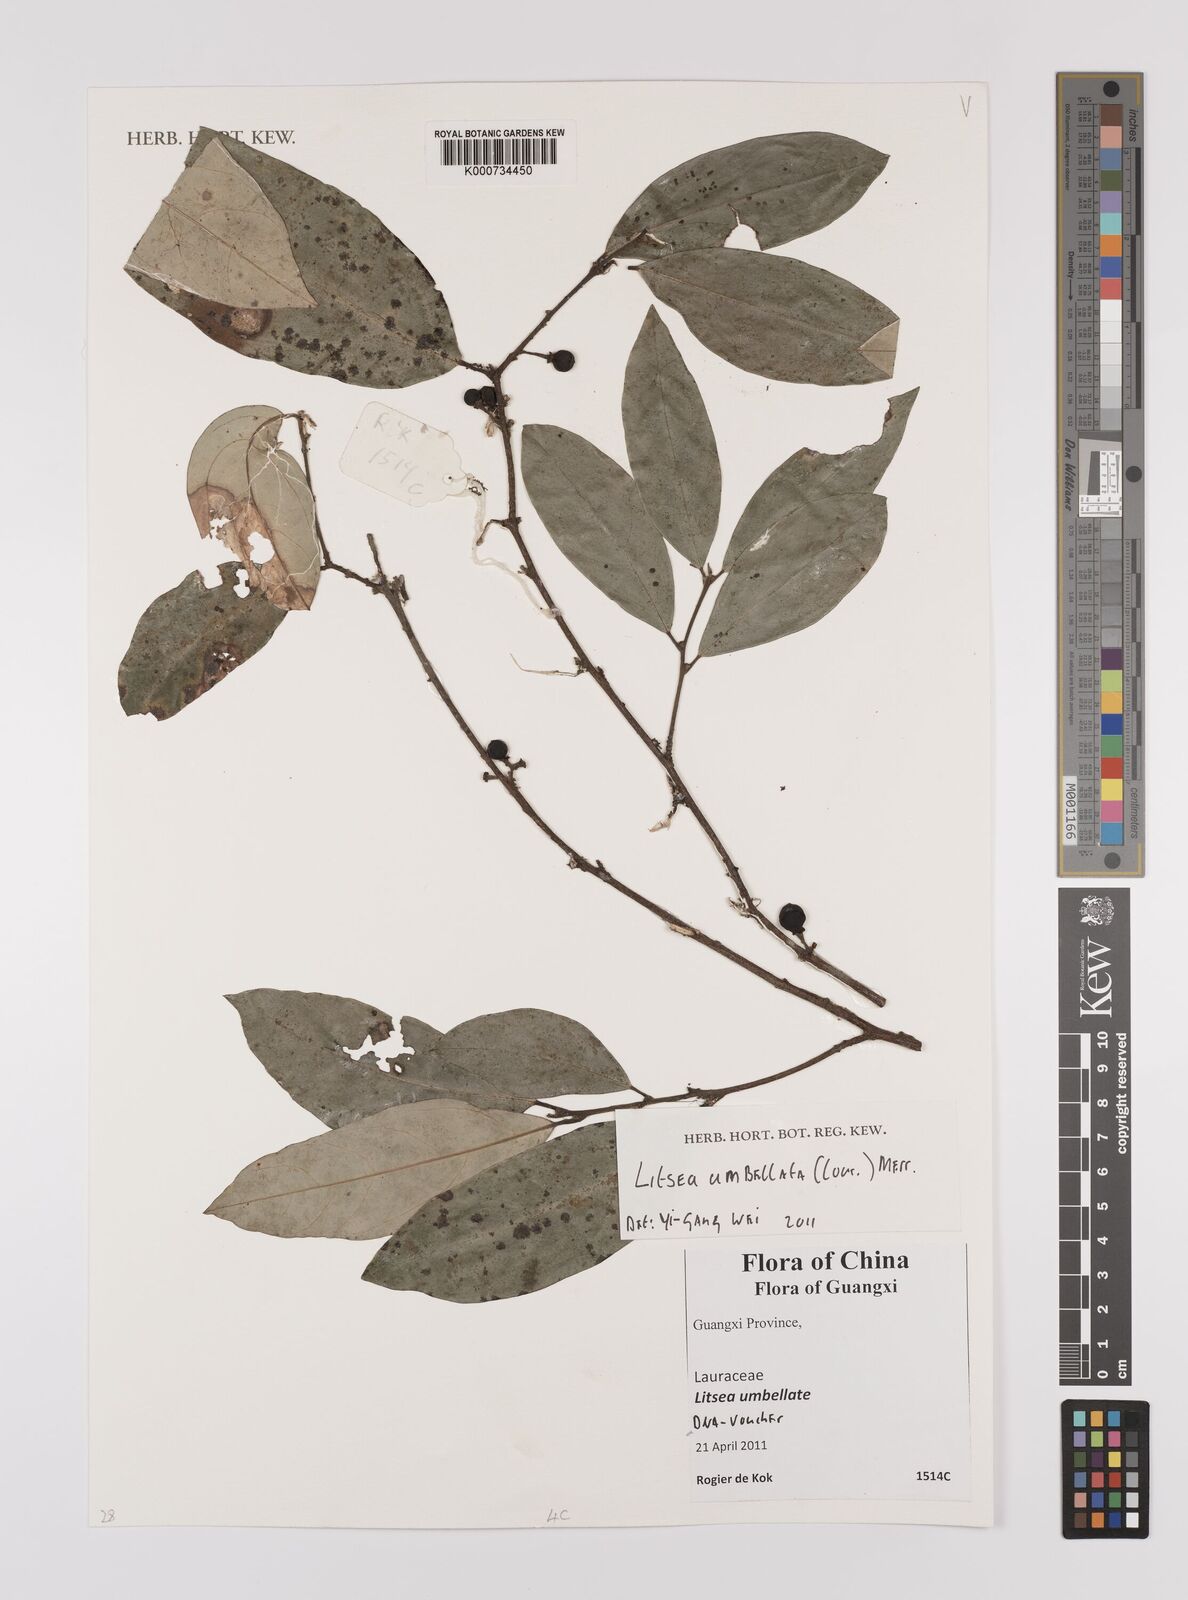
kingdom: Plantae
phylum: Tracheophyta
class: Magnoliopsida
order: Laurales
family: Lauraceae
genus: Litsea
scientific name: Litsea umbellata
